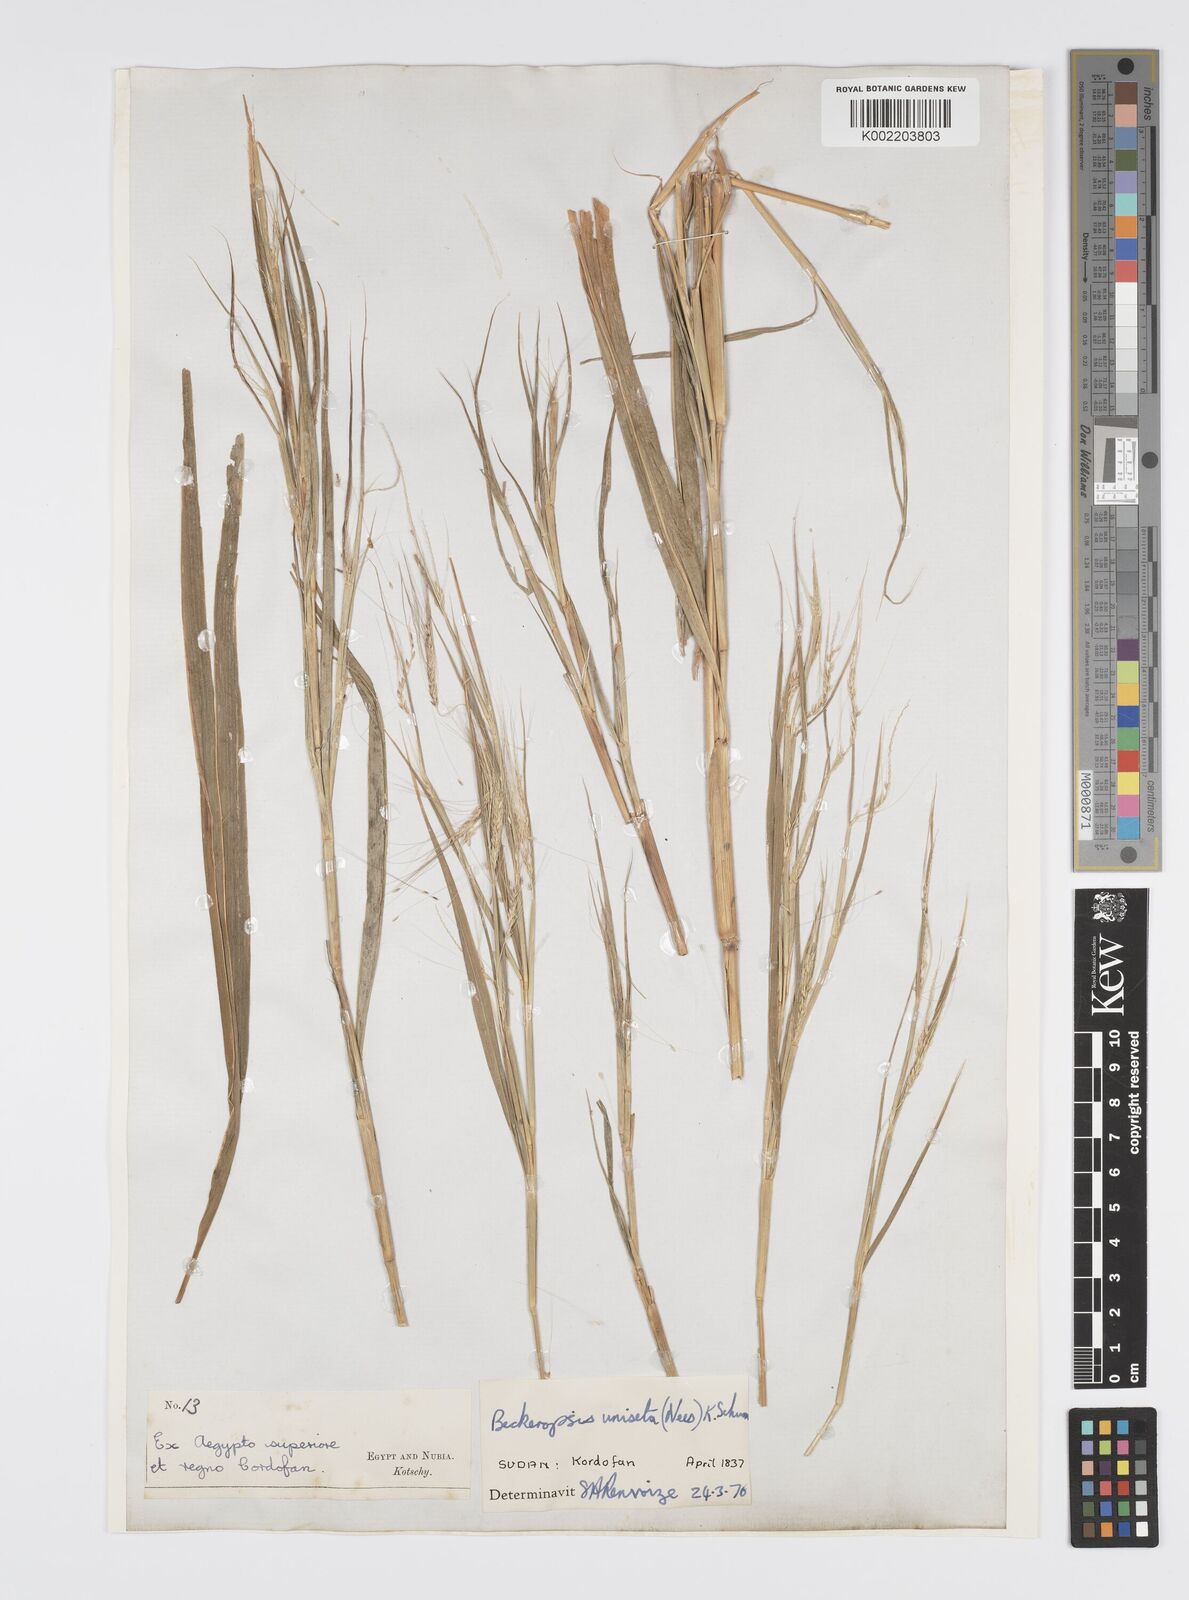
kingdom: Plantae
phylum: Tracheophyta
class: Liliopsida
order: Poales
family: Poaceae
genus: Cenchrus
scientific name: Cenchrus unisetus
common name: Natal grass
